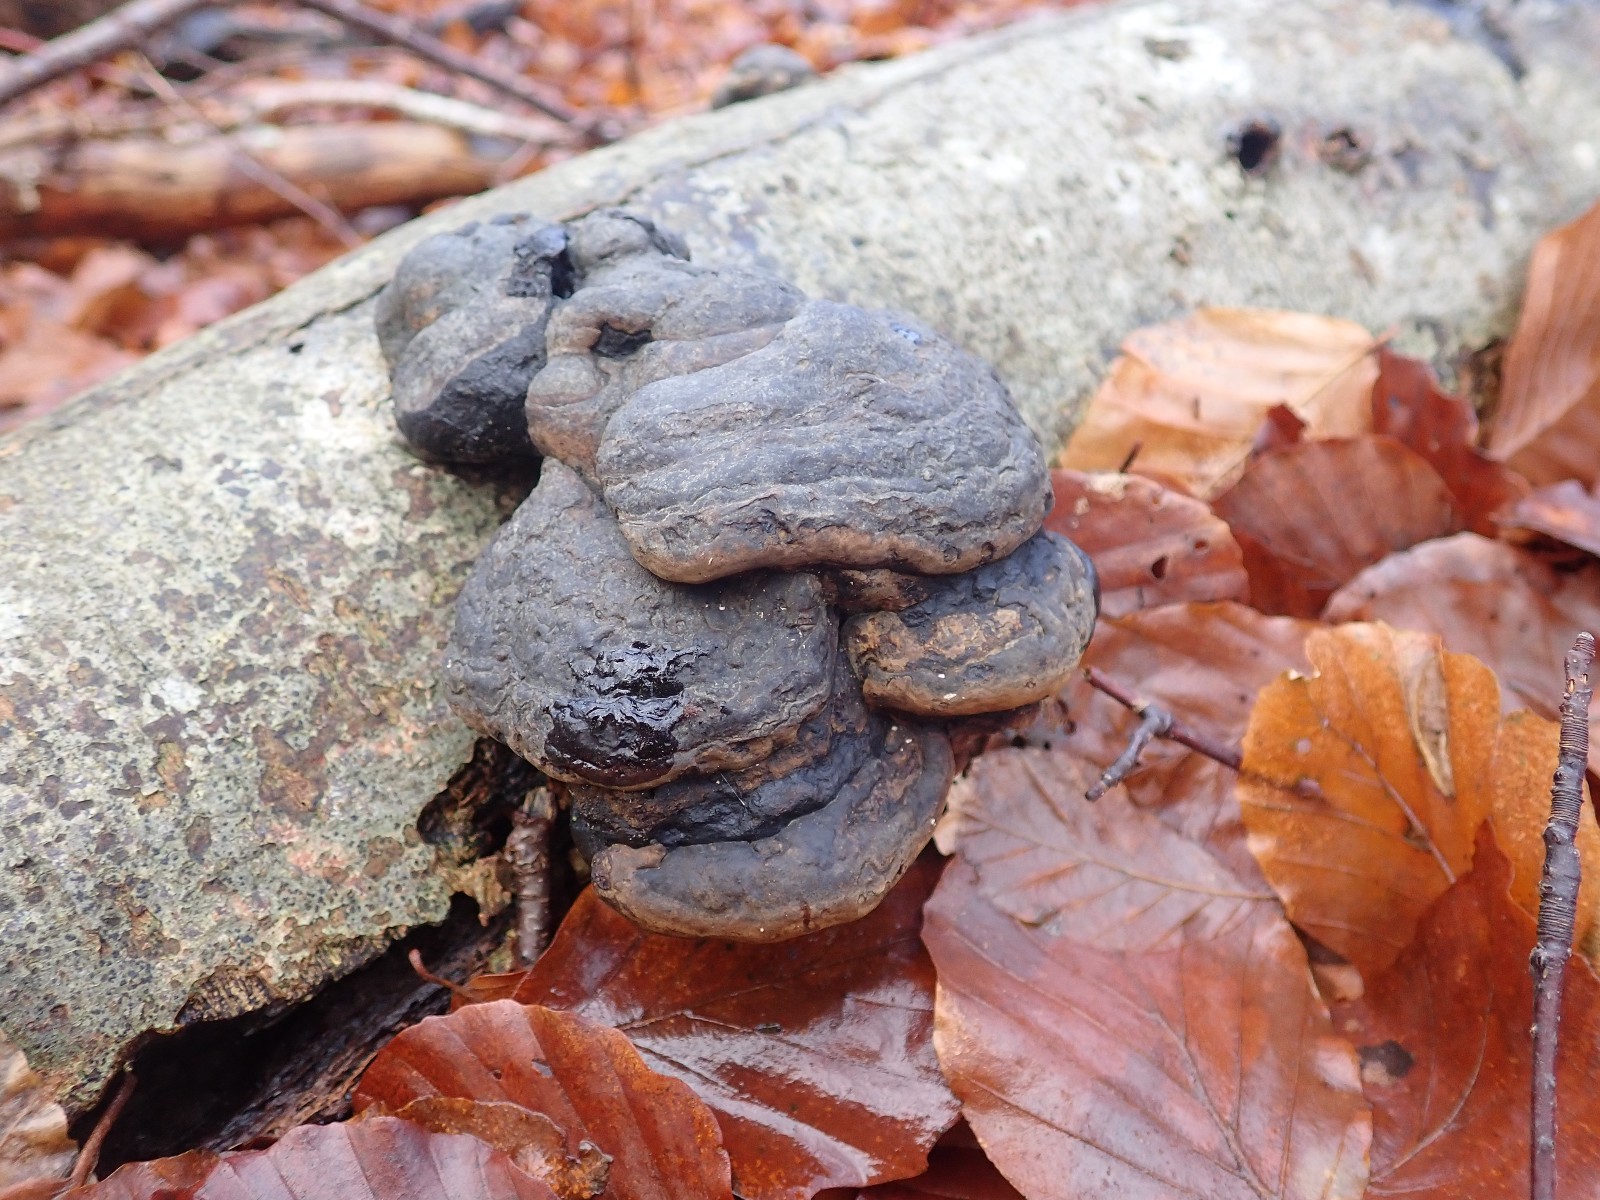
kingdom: Fungi
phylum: Basidiomycota
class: Agaricomycetes
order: Polyporales
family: Polyporaceae
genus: Fomes
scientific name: Fomes fomentarius
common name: tøndersvamp
